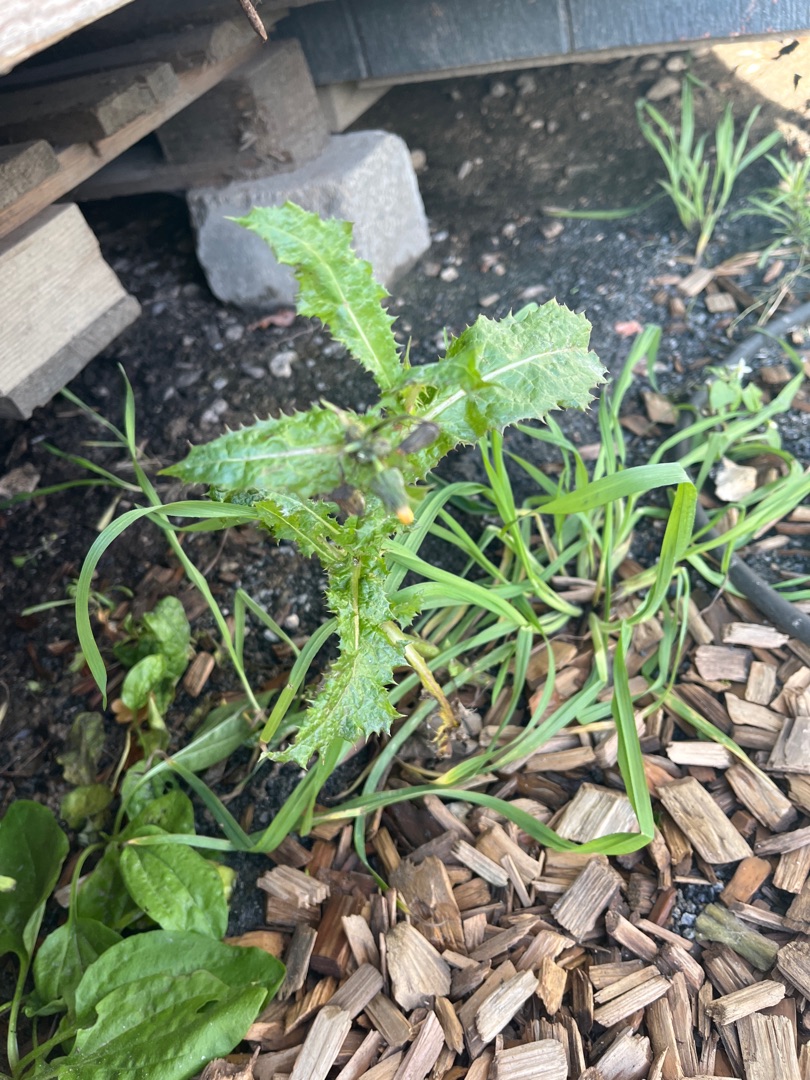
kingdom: Plantae
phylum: Tracheophyta
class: Magnoliopsida
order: Asterales
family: Asteraceae
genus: Sonchus
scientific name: Sonchus asper
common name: Ru svinemælk
